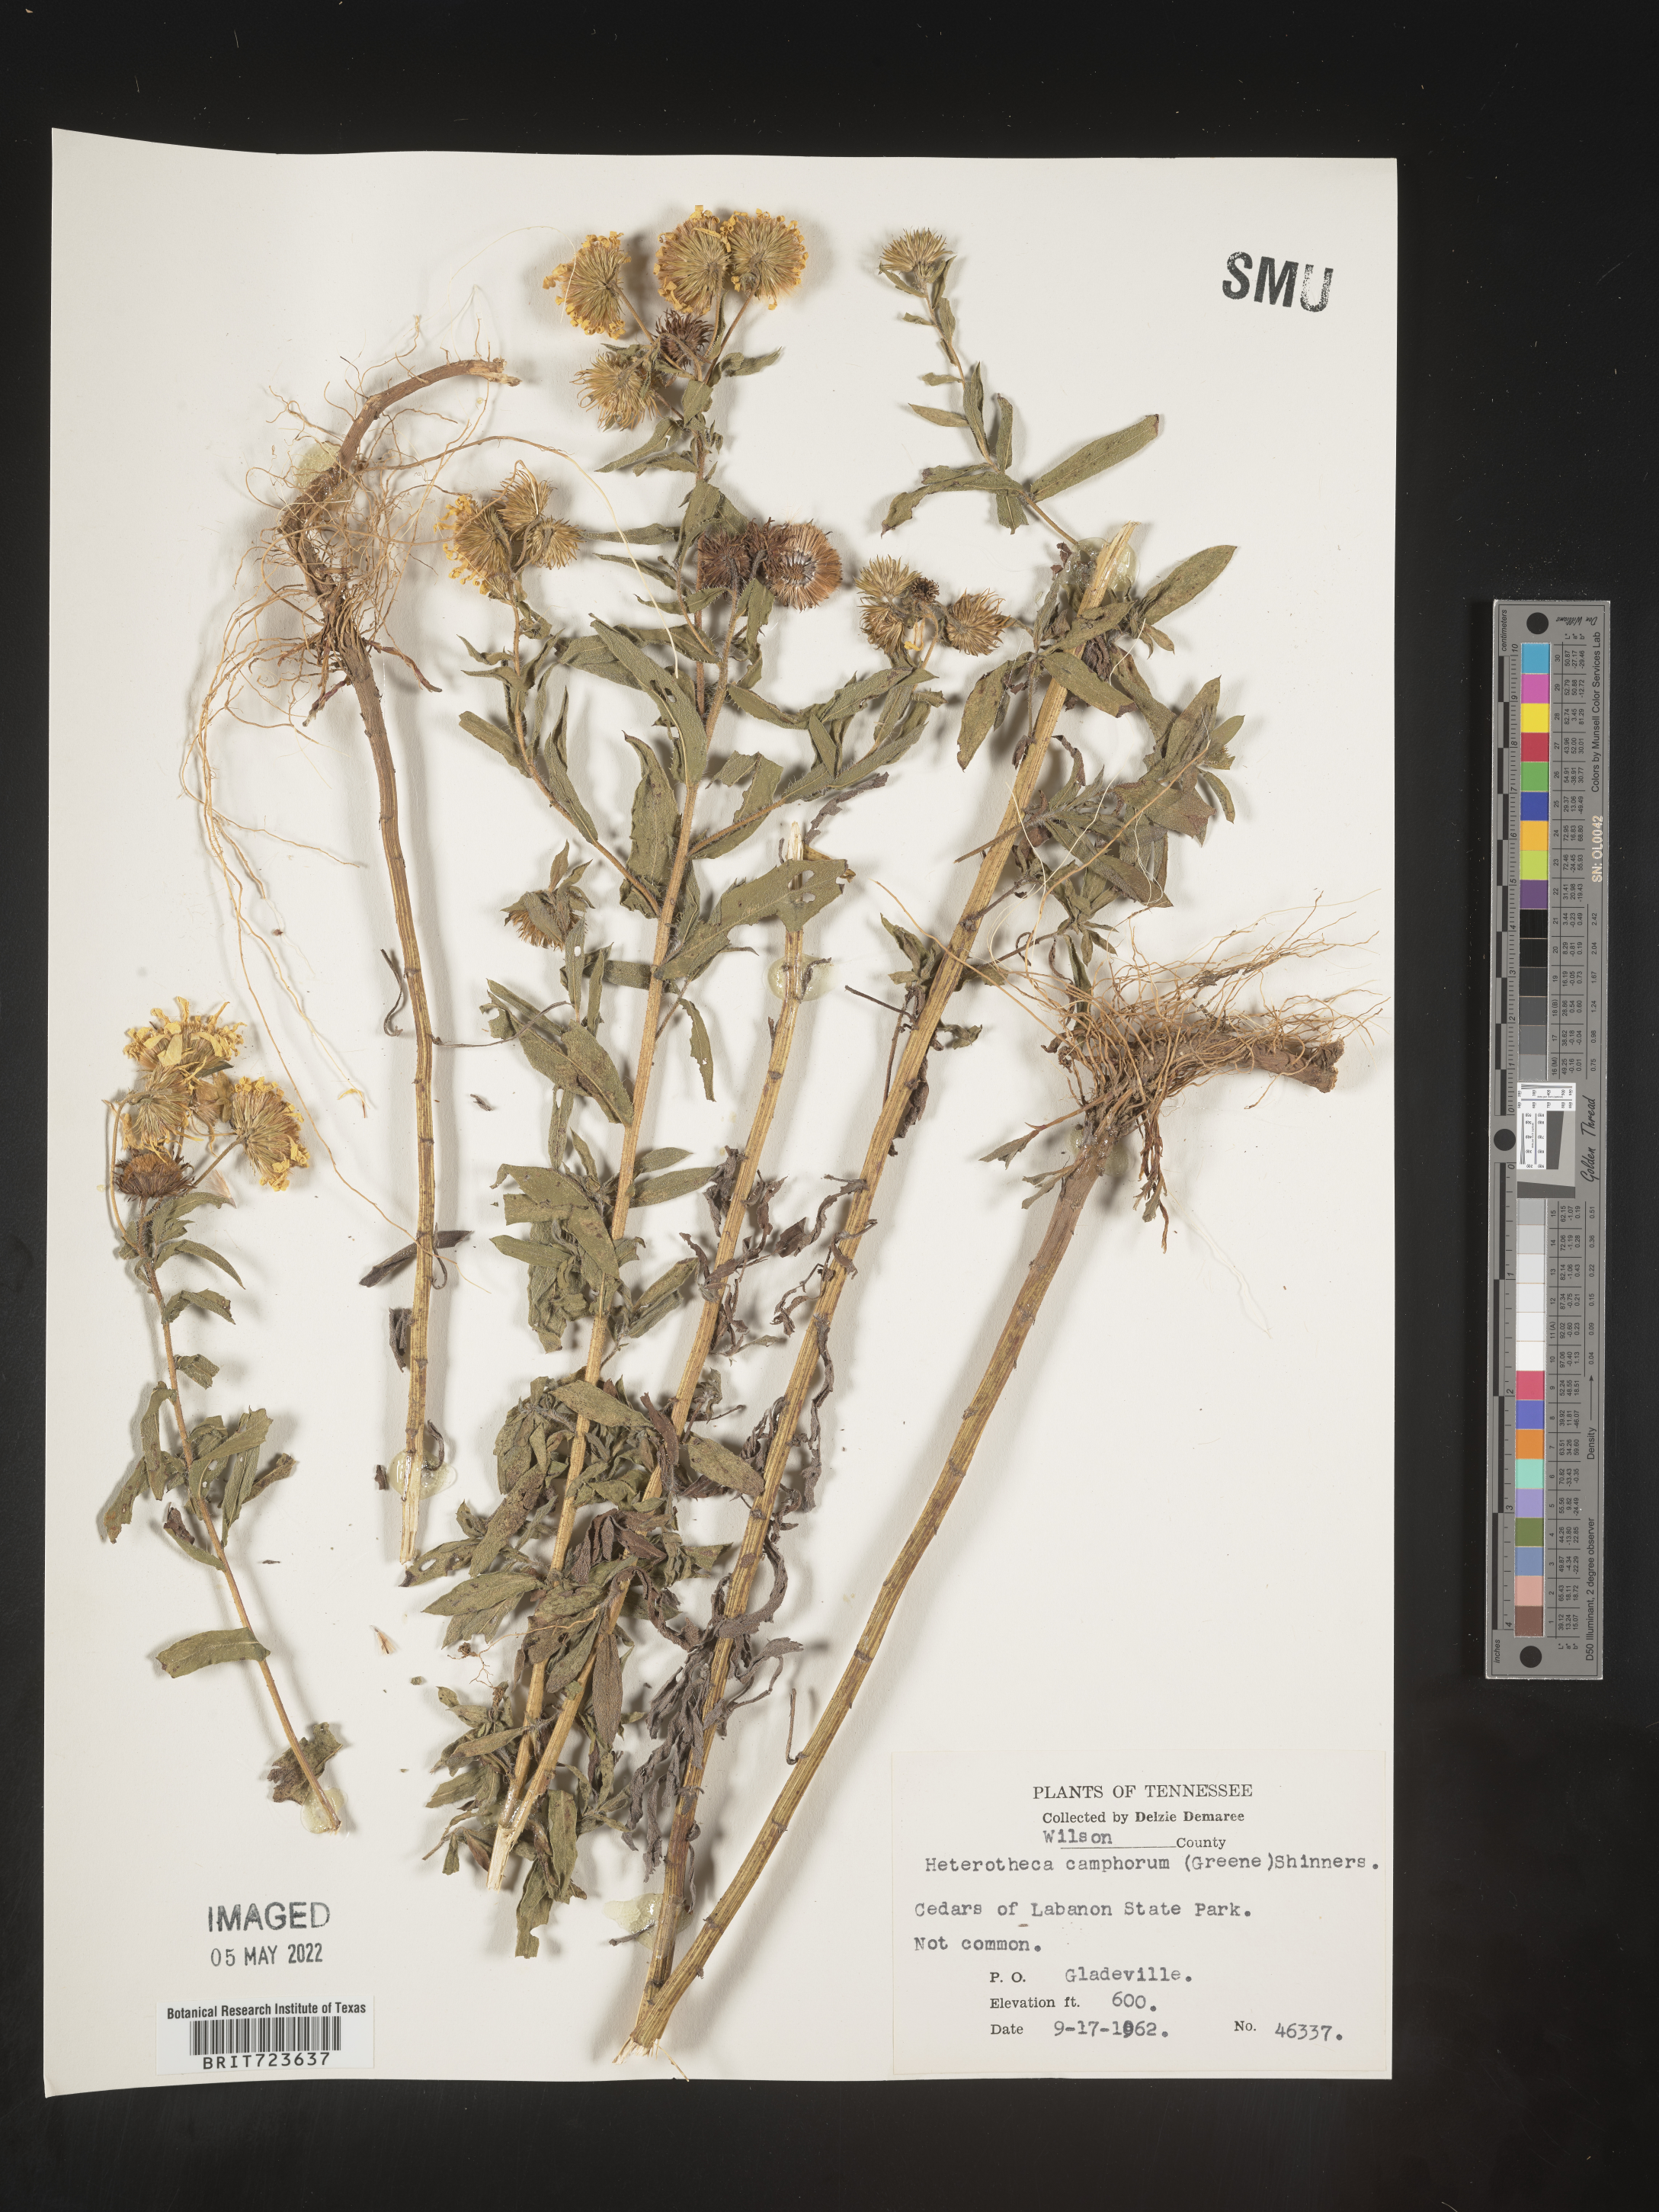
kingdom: Plantae
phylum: Tracheophyta
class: Magnoliopsida
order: Asterales
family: Asteraceae
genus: Heterotheca
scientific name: Heterotheca camporum
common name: Prairie golden-aster
